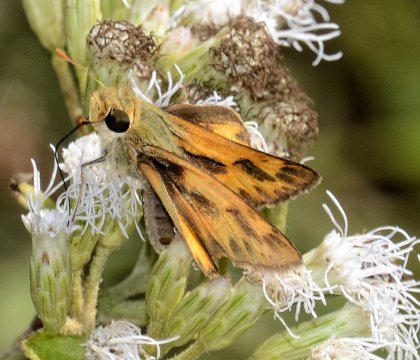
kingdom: Animalia
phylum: Arthropoda
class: Insecta
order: Lepidoptera
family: Hesperiidae
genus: Polites
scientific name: Polites vibex
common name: Whirlabout
